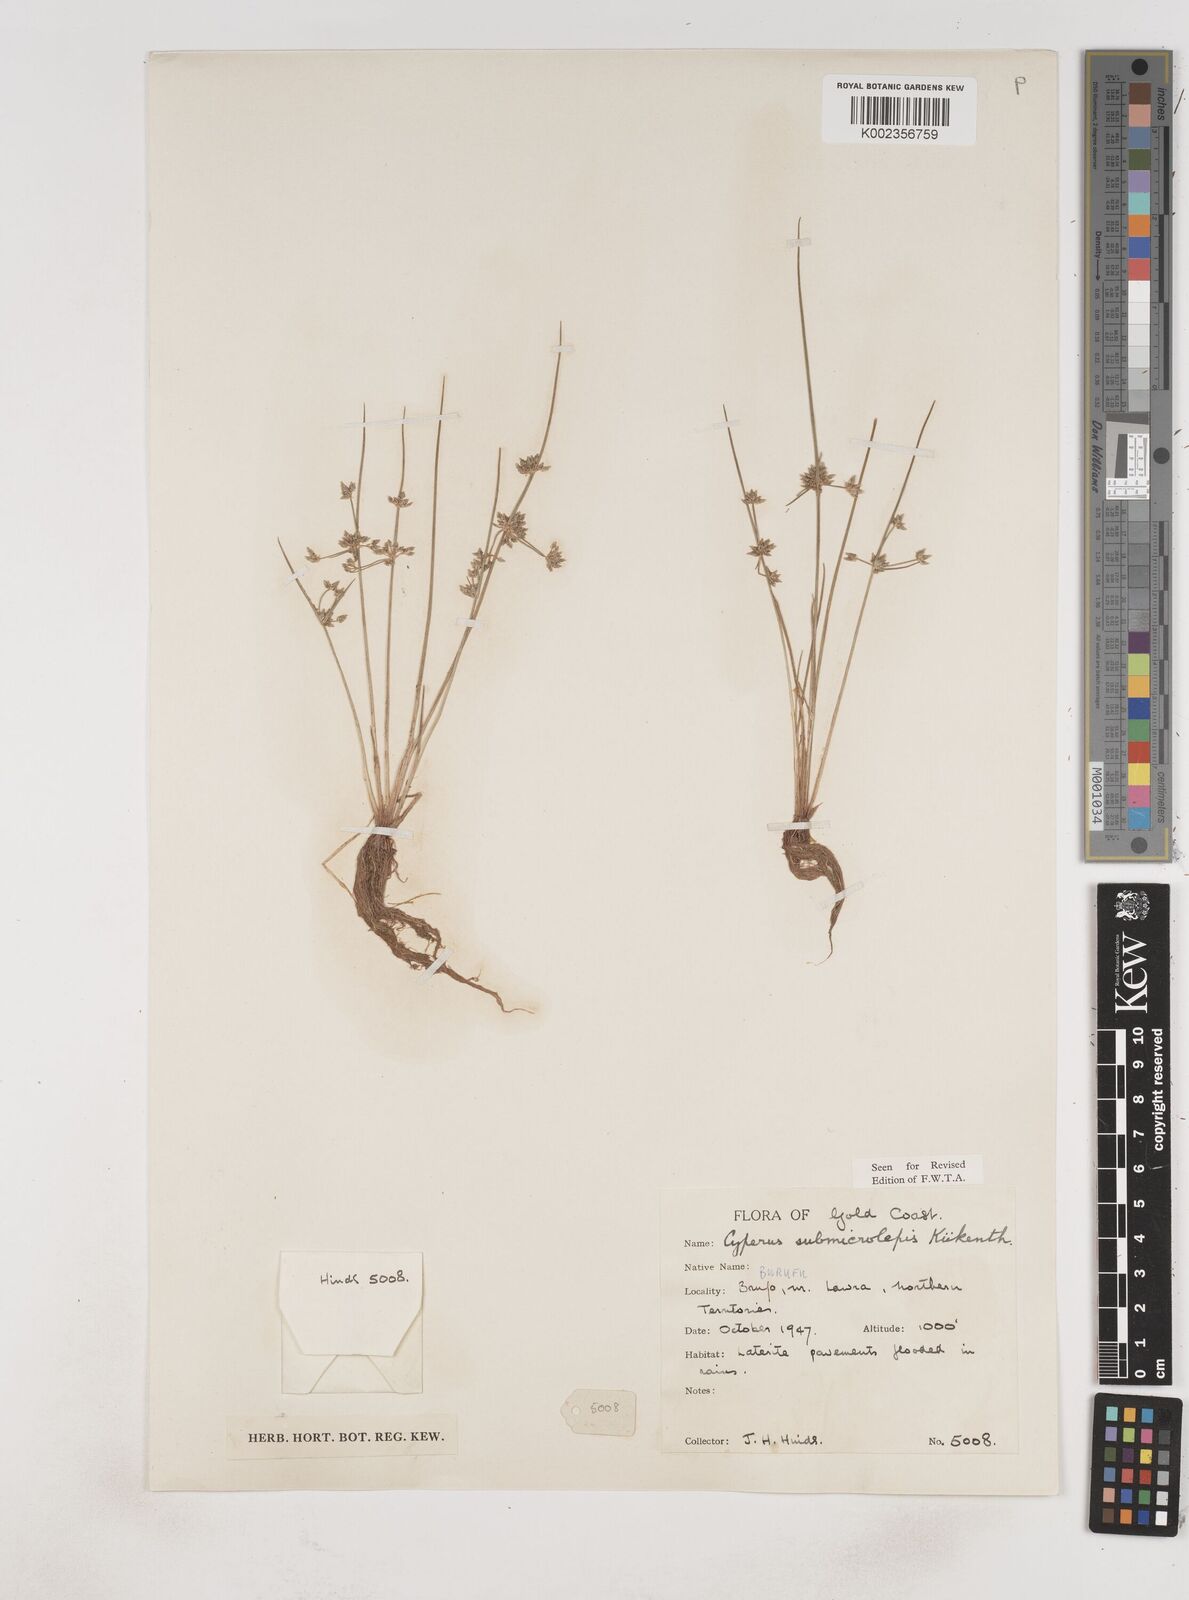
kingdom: Plantae
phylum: Tracheophyta
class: Liliopsida
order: Poales
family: Cyperaceae
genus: Cyperus
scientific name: Cyperus submicrolepis
